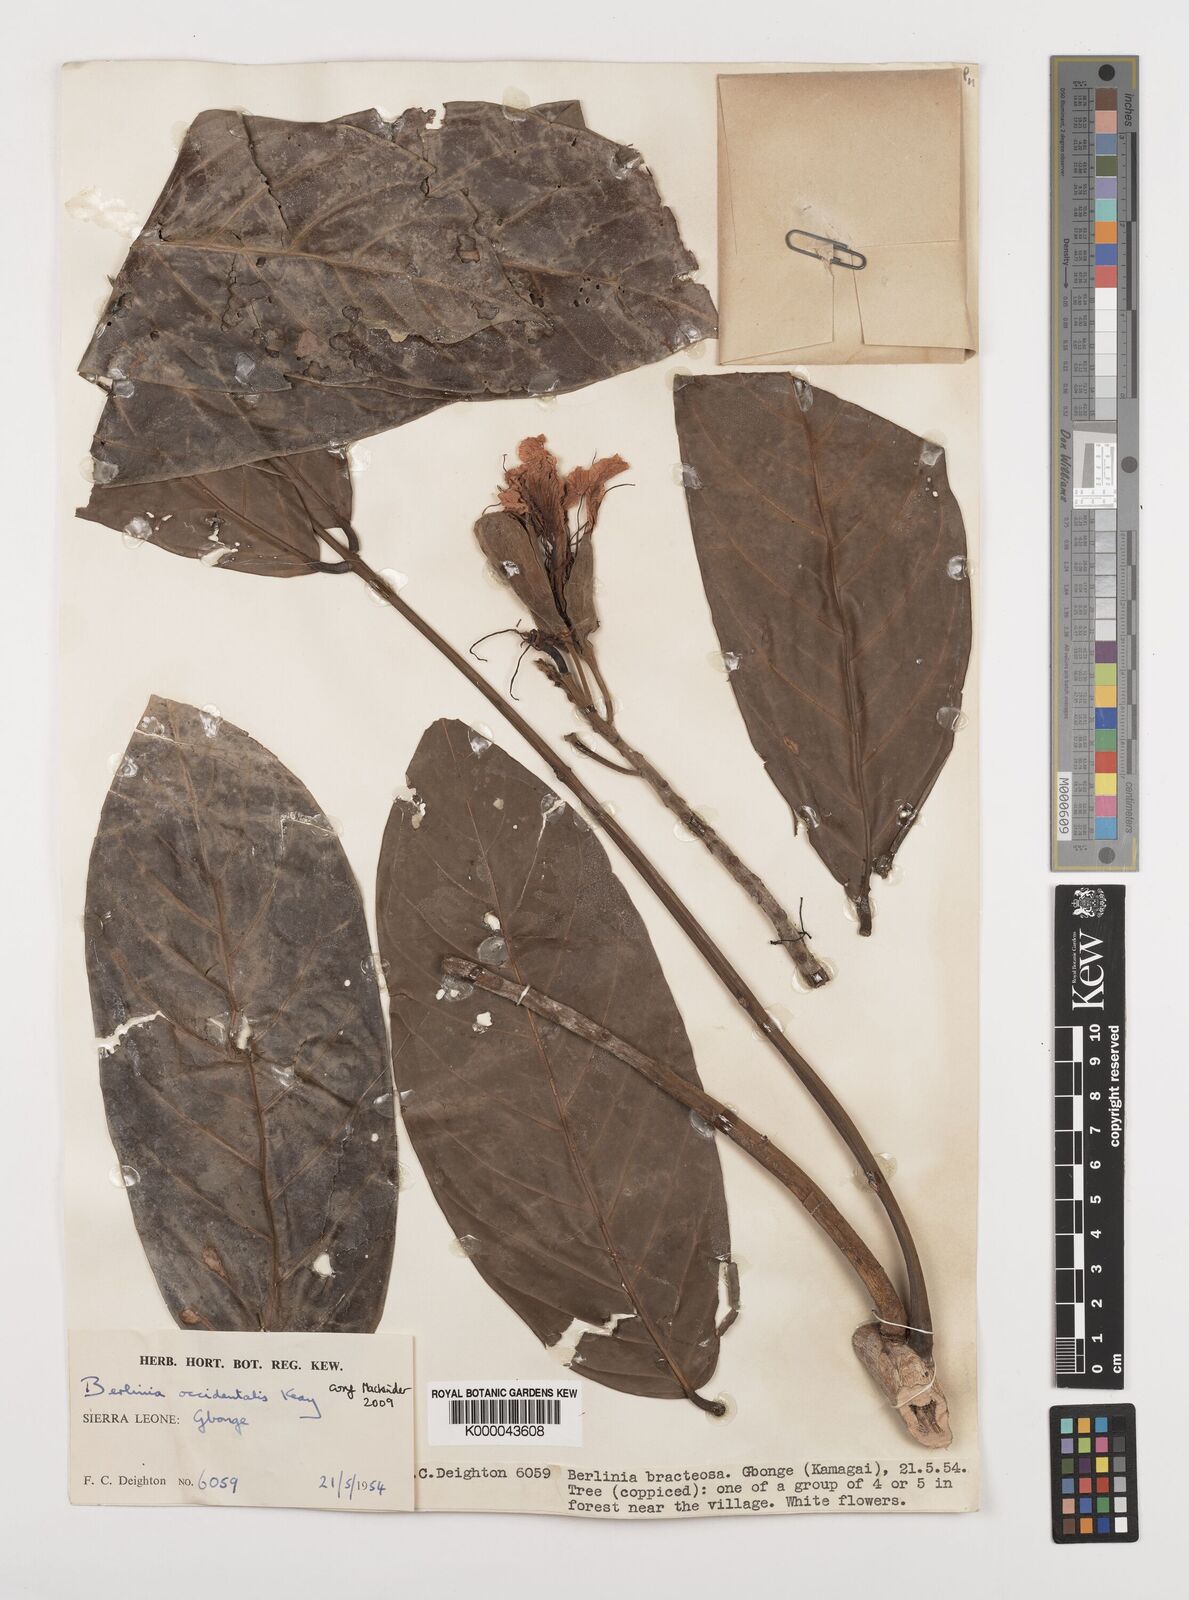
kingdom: Plantae
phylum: Tracheophyta
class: Magnoliopsida
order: Fabales
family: Fabaceae
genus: Berlinia
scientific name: Berlinia occidentalis
